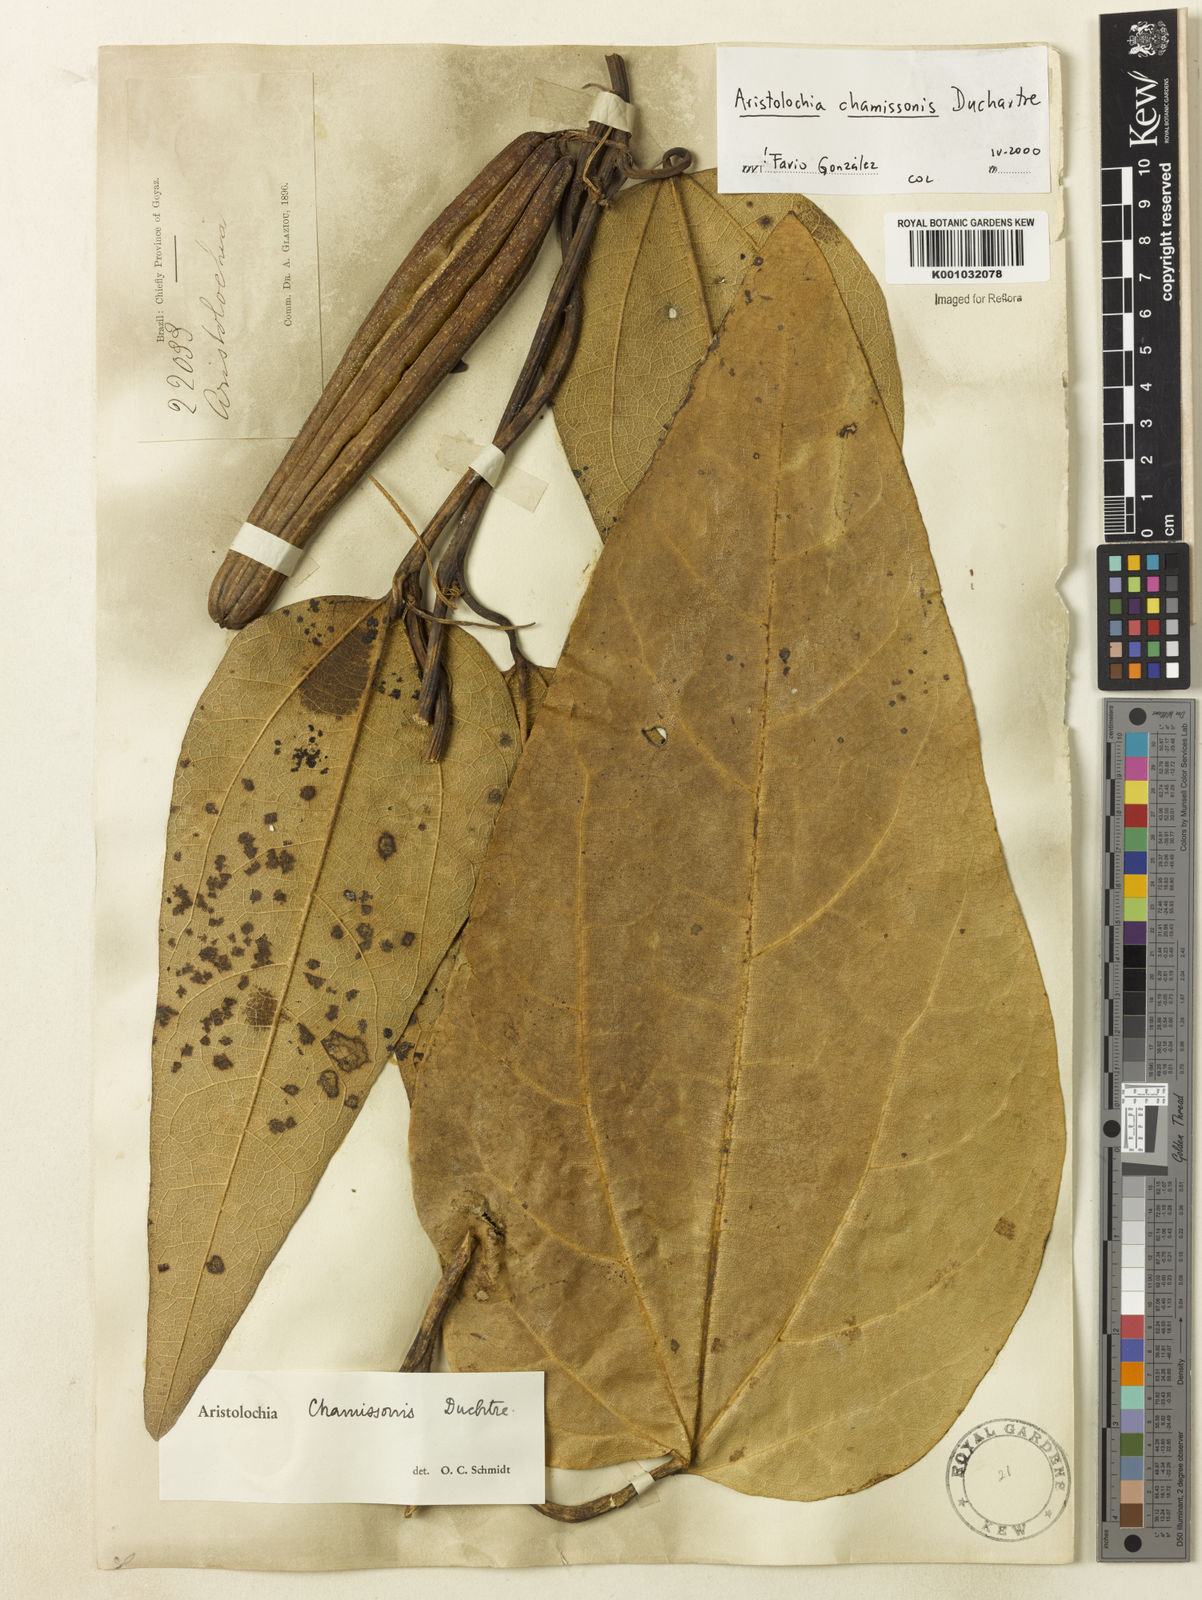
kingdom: Plantae
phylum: Tracheophyta
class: Magnoliopsida
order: Piperales
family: Aristolochiaceae
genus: Aristolochia
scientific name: Aristolochia chamissonis
